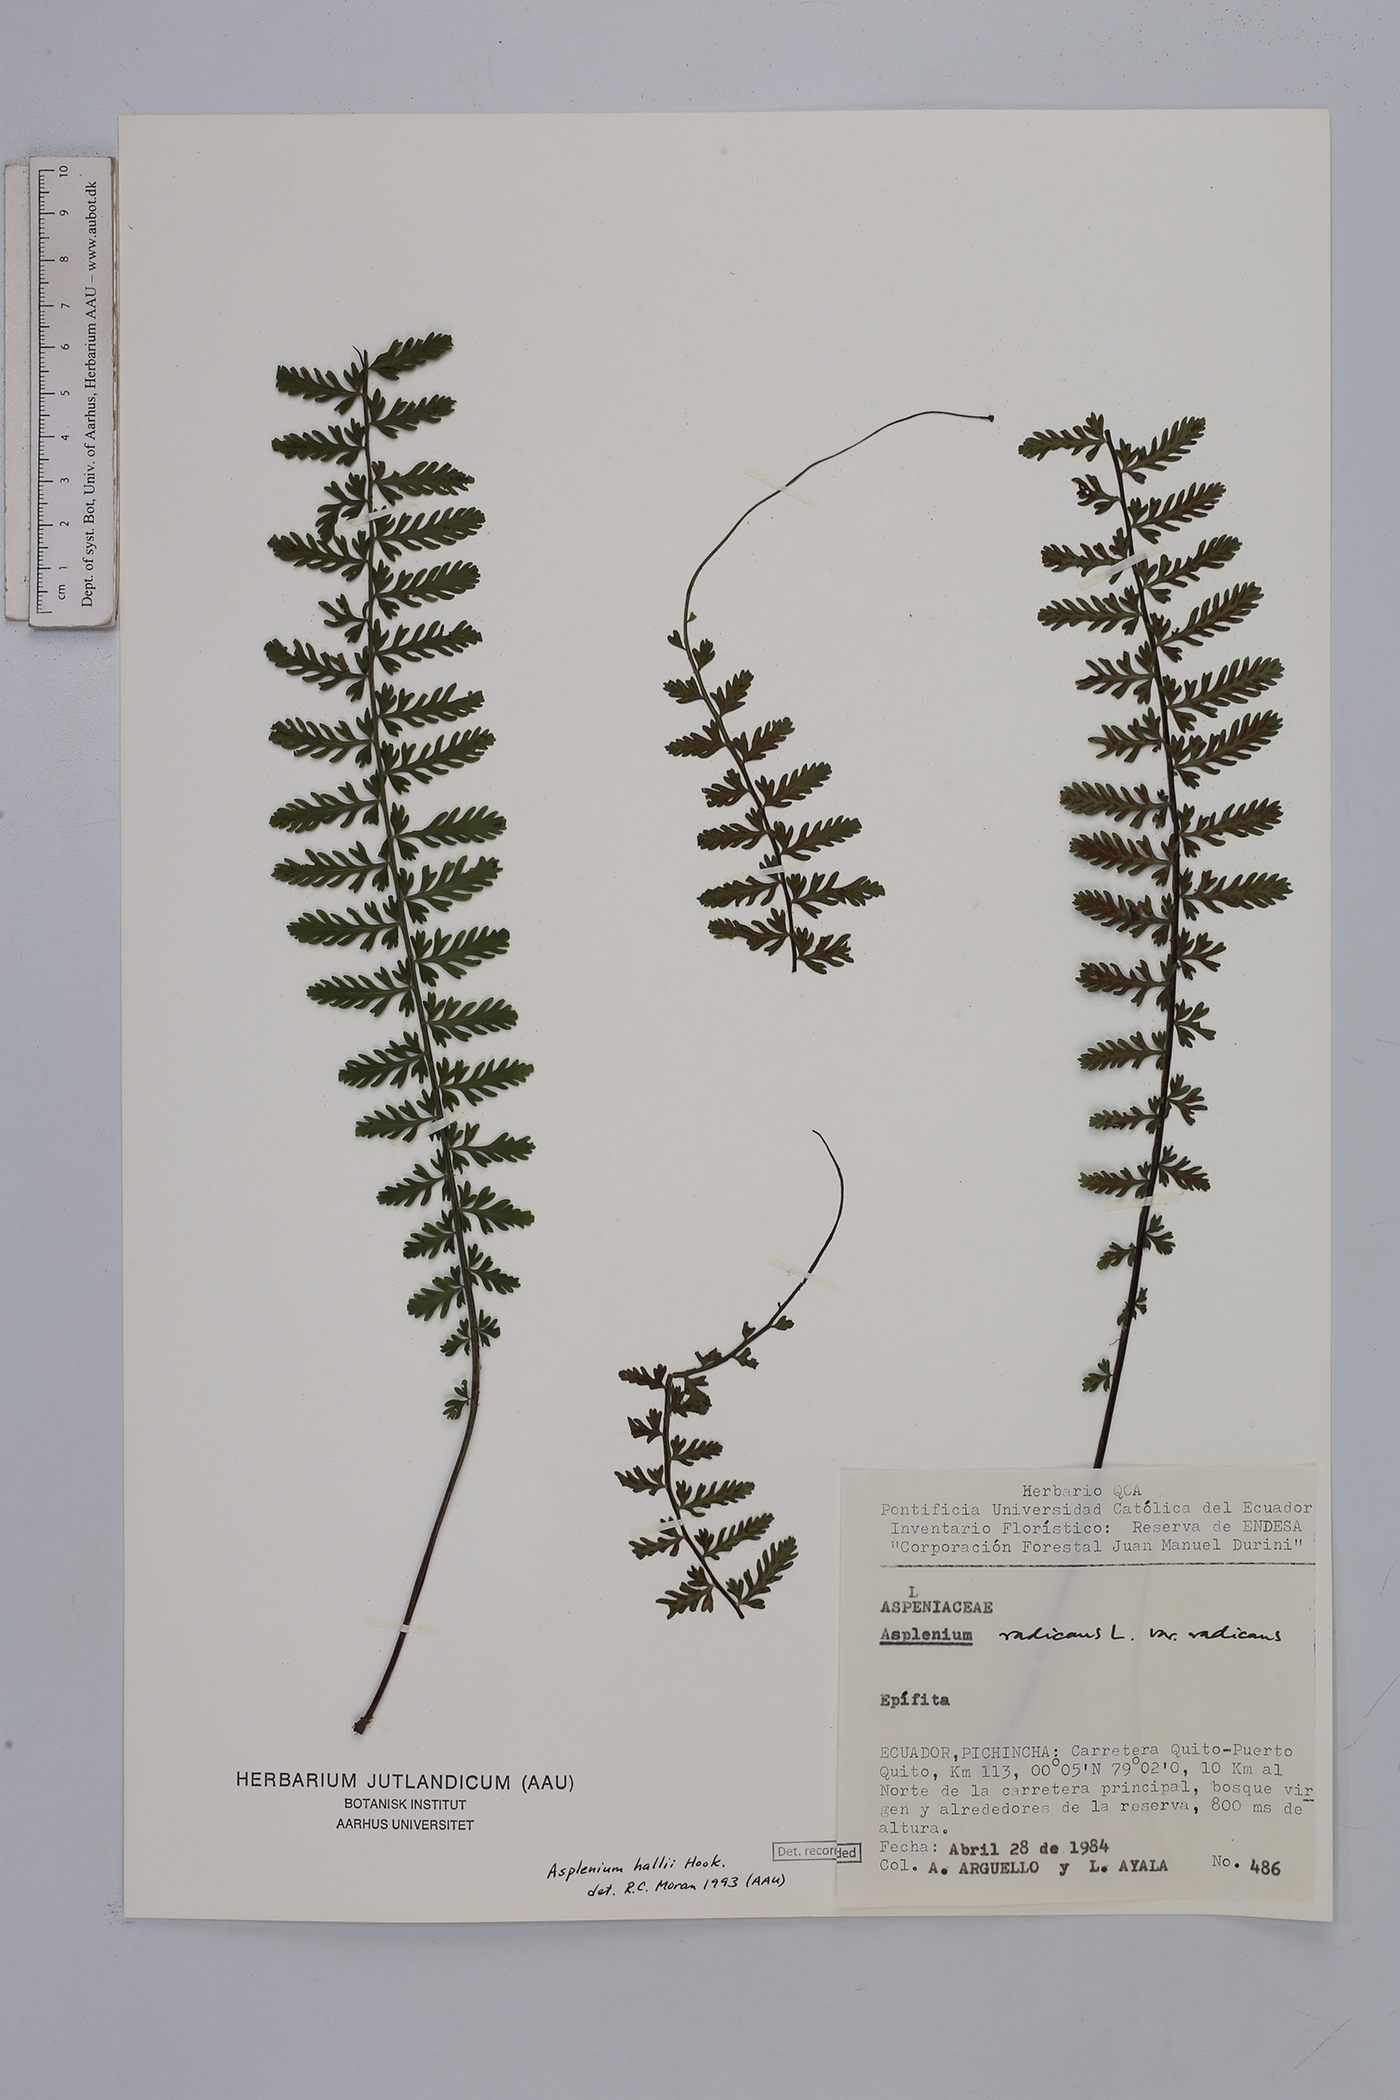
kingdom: Plantae
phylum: Tracheophyta
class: Polypodiopsida
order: Polypodiales
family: Aspleniaceae
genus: Asplenium
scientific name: Asplenium hallii
